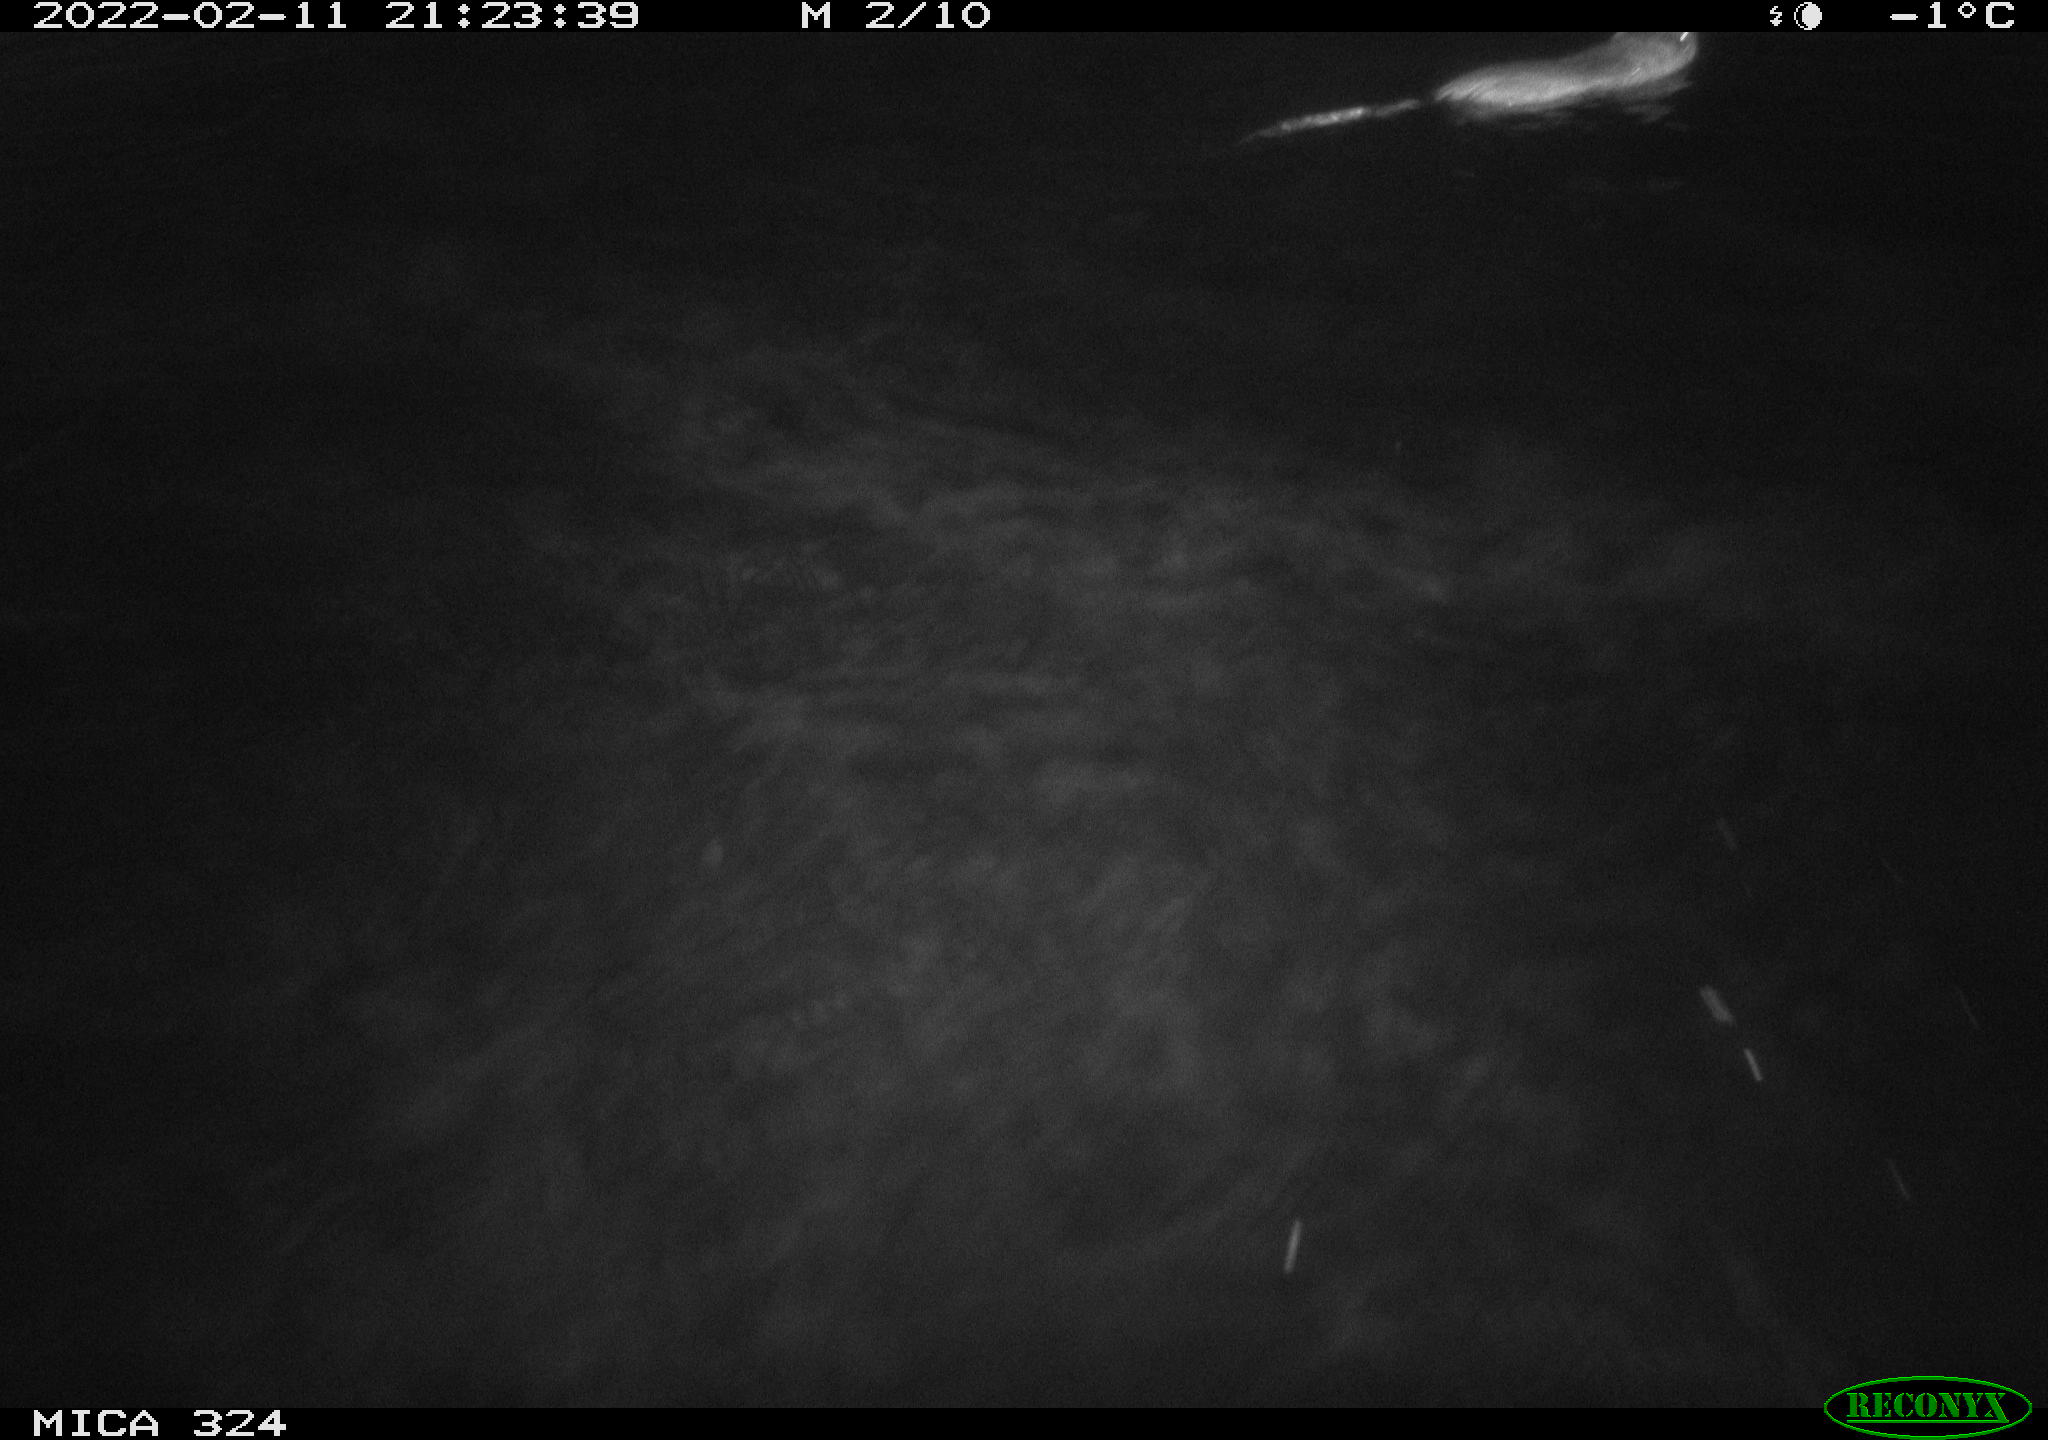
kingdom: Animalia
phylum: Chordata
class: Mammalia
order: Rodentia
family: Cricetidae
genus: Ondatra
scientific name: Ondatra zibethicus
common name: Muskrat
